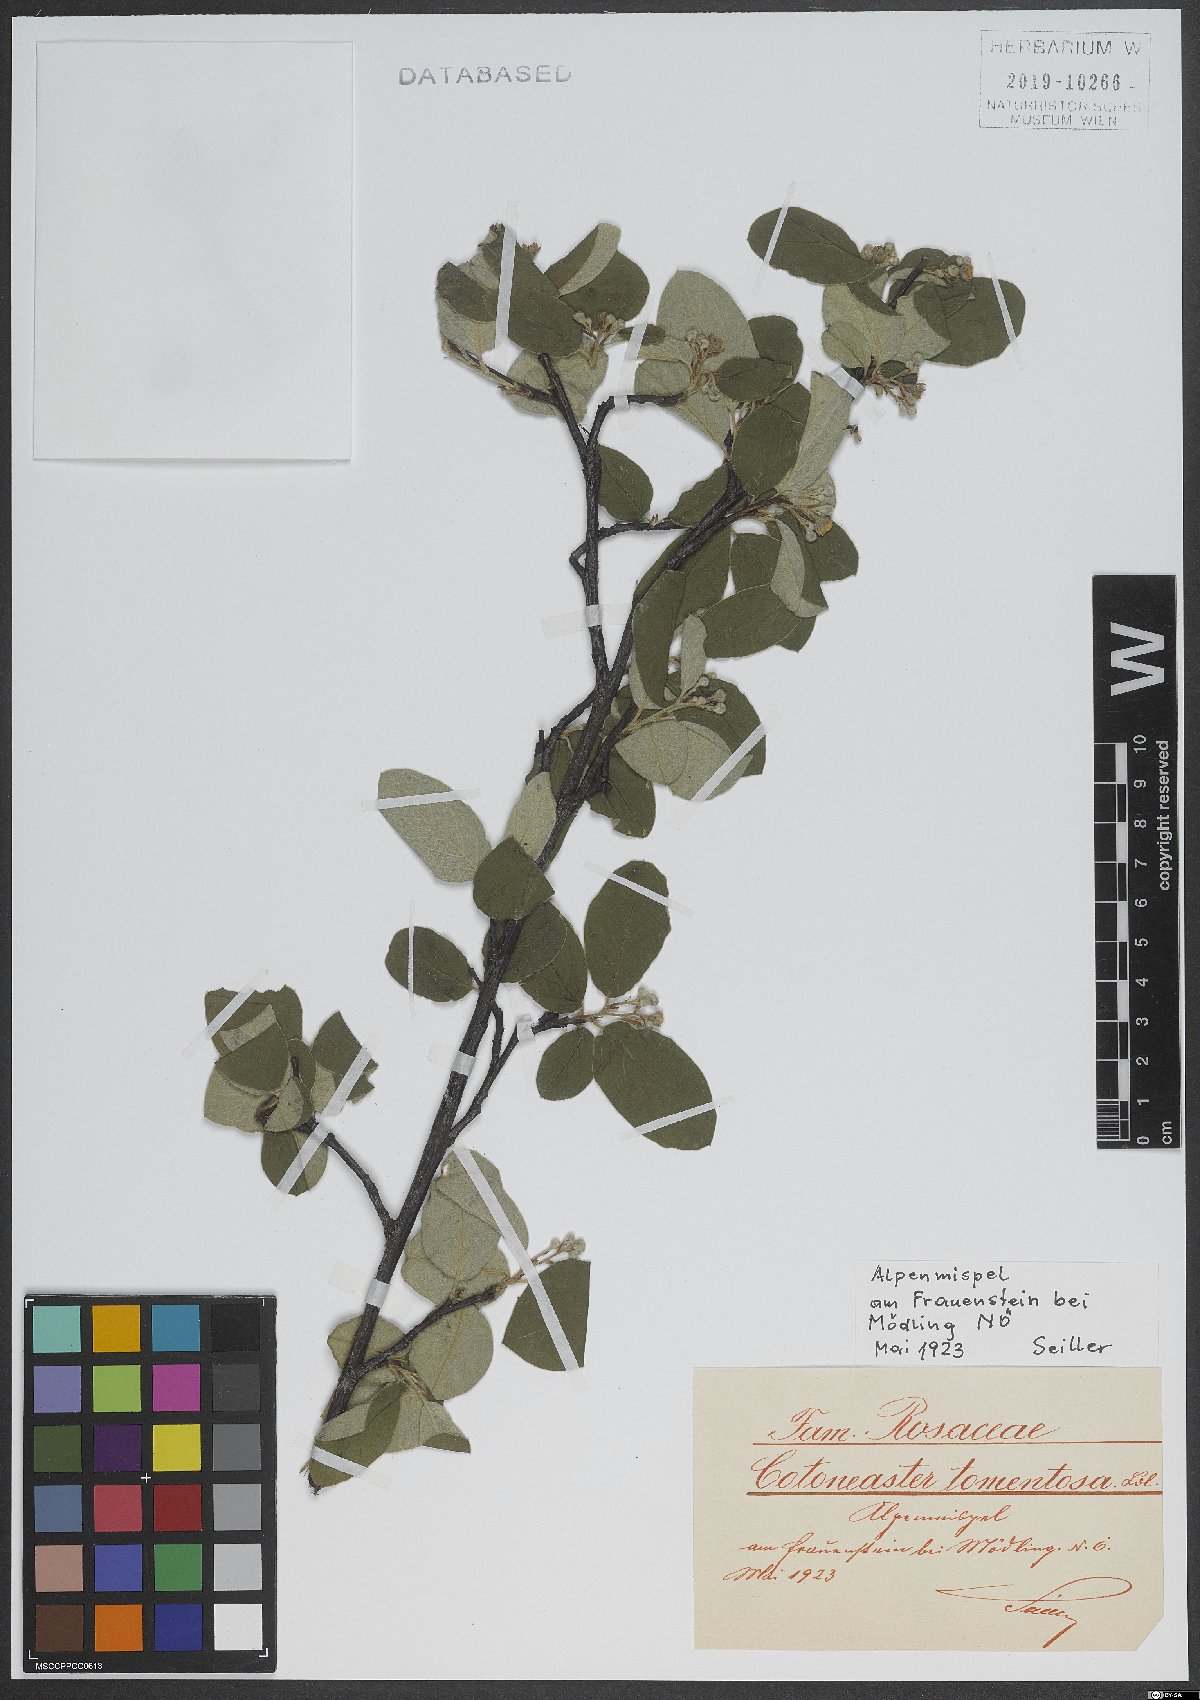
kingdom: Plantae
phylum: Tracheophyta
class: Magnoliopsida
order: Rosales
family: Rosaceae
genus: Cotoneaster
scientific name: Cotoneaster tomentosus
